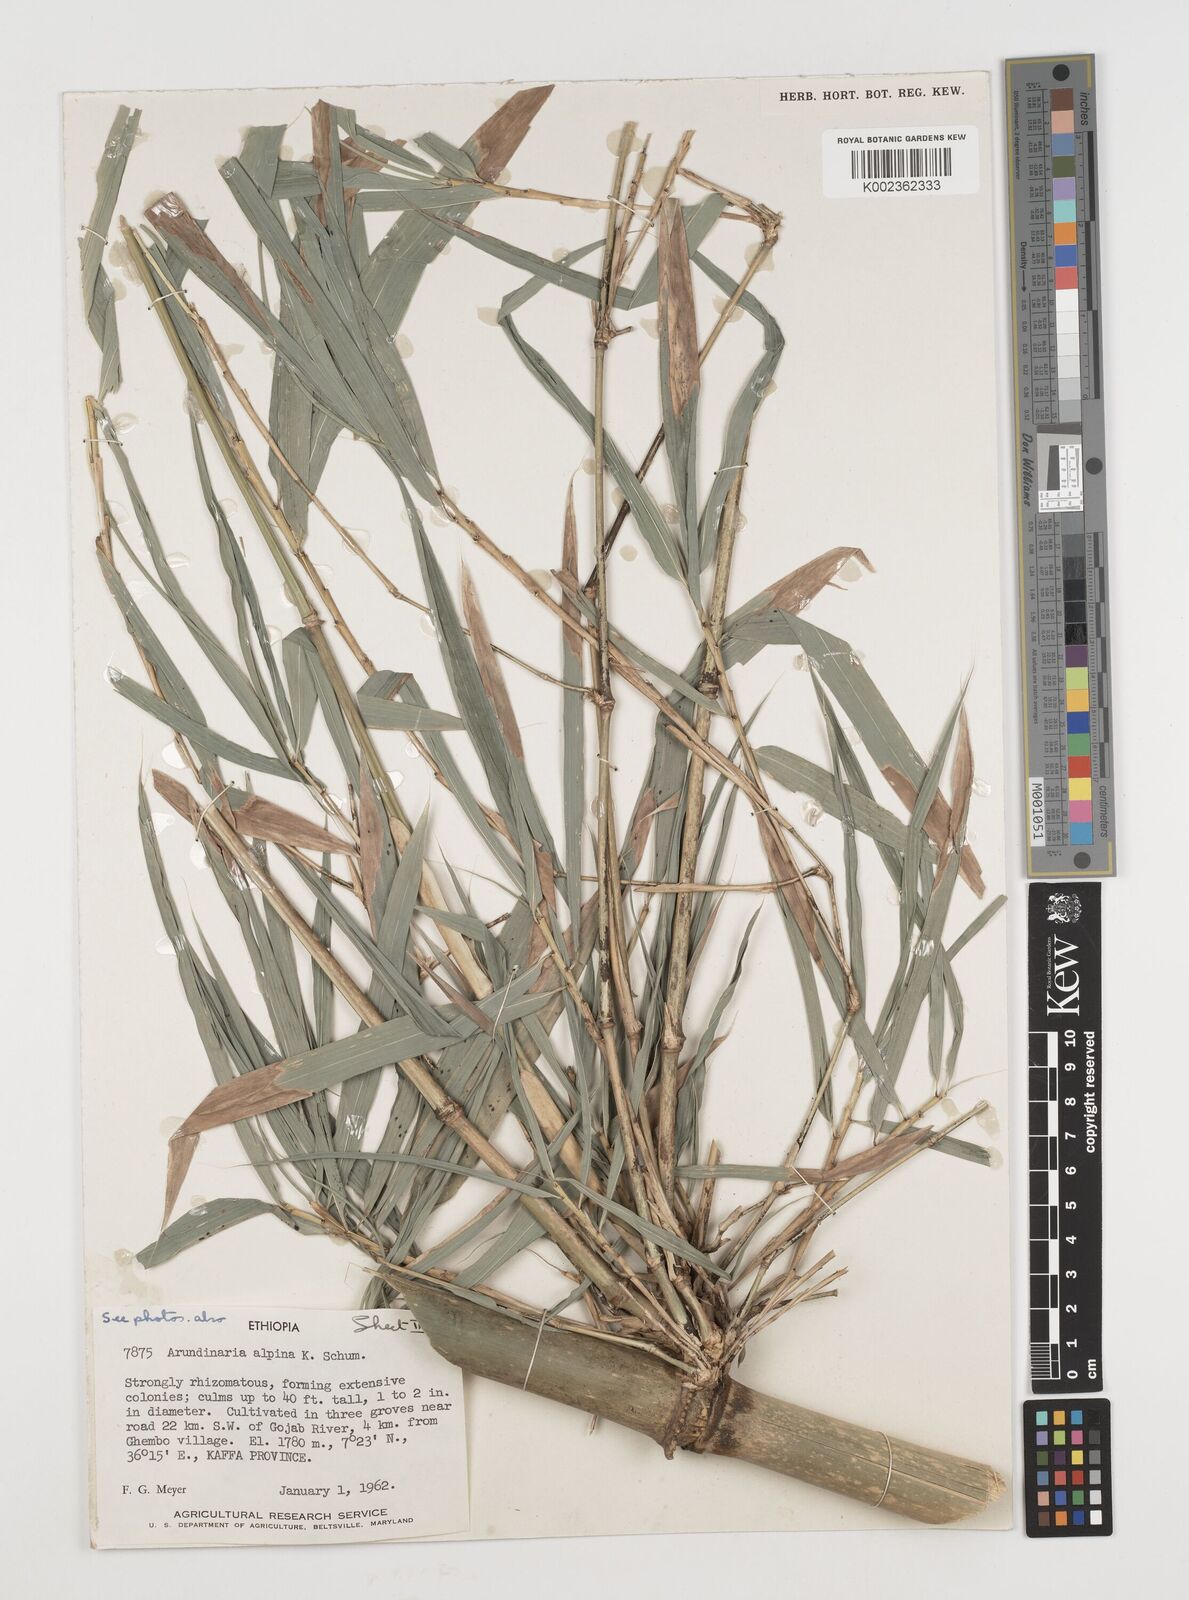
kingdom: Plantae
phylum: Tracheophyta
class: Liliopsida
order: Poales
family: Poaceae
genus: Oldeania
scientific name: Oldeania alpina
